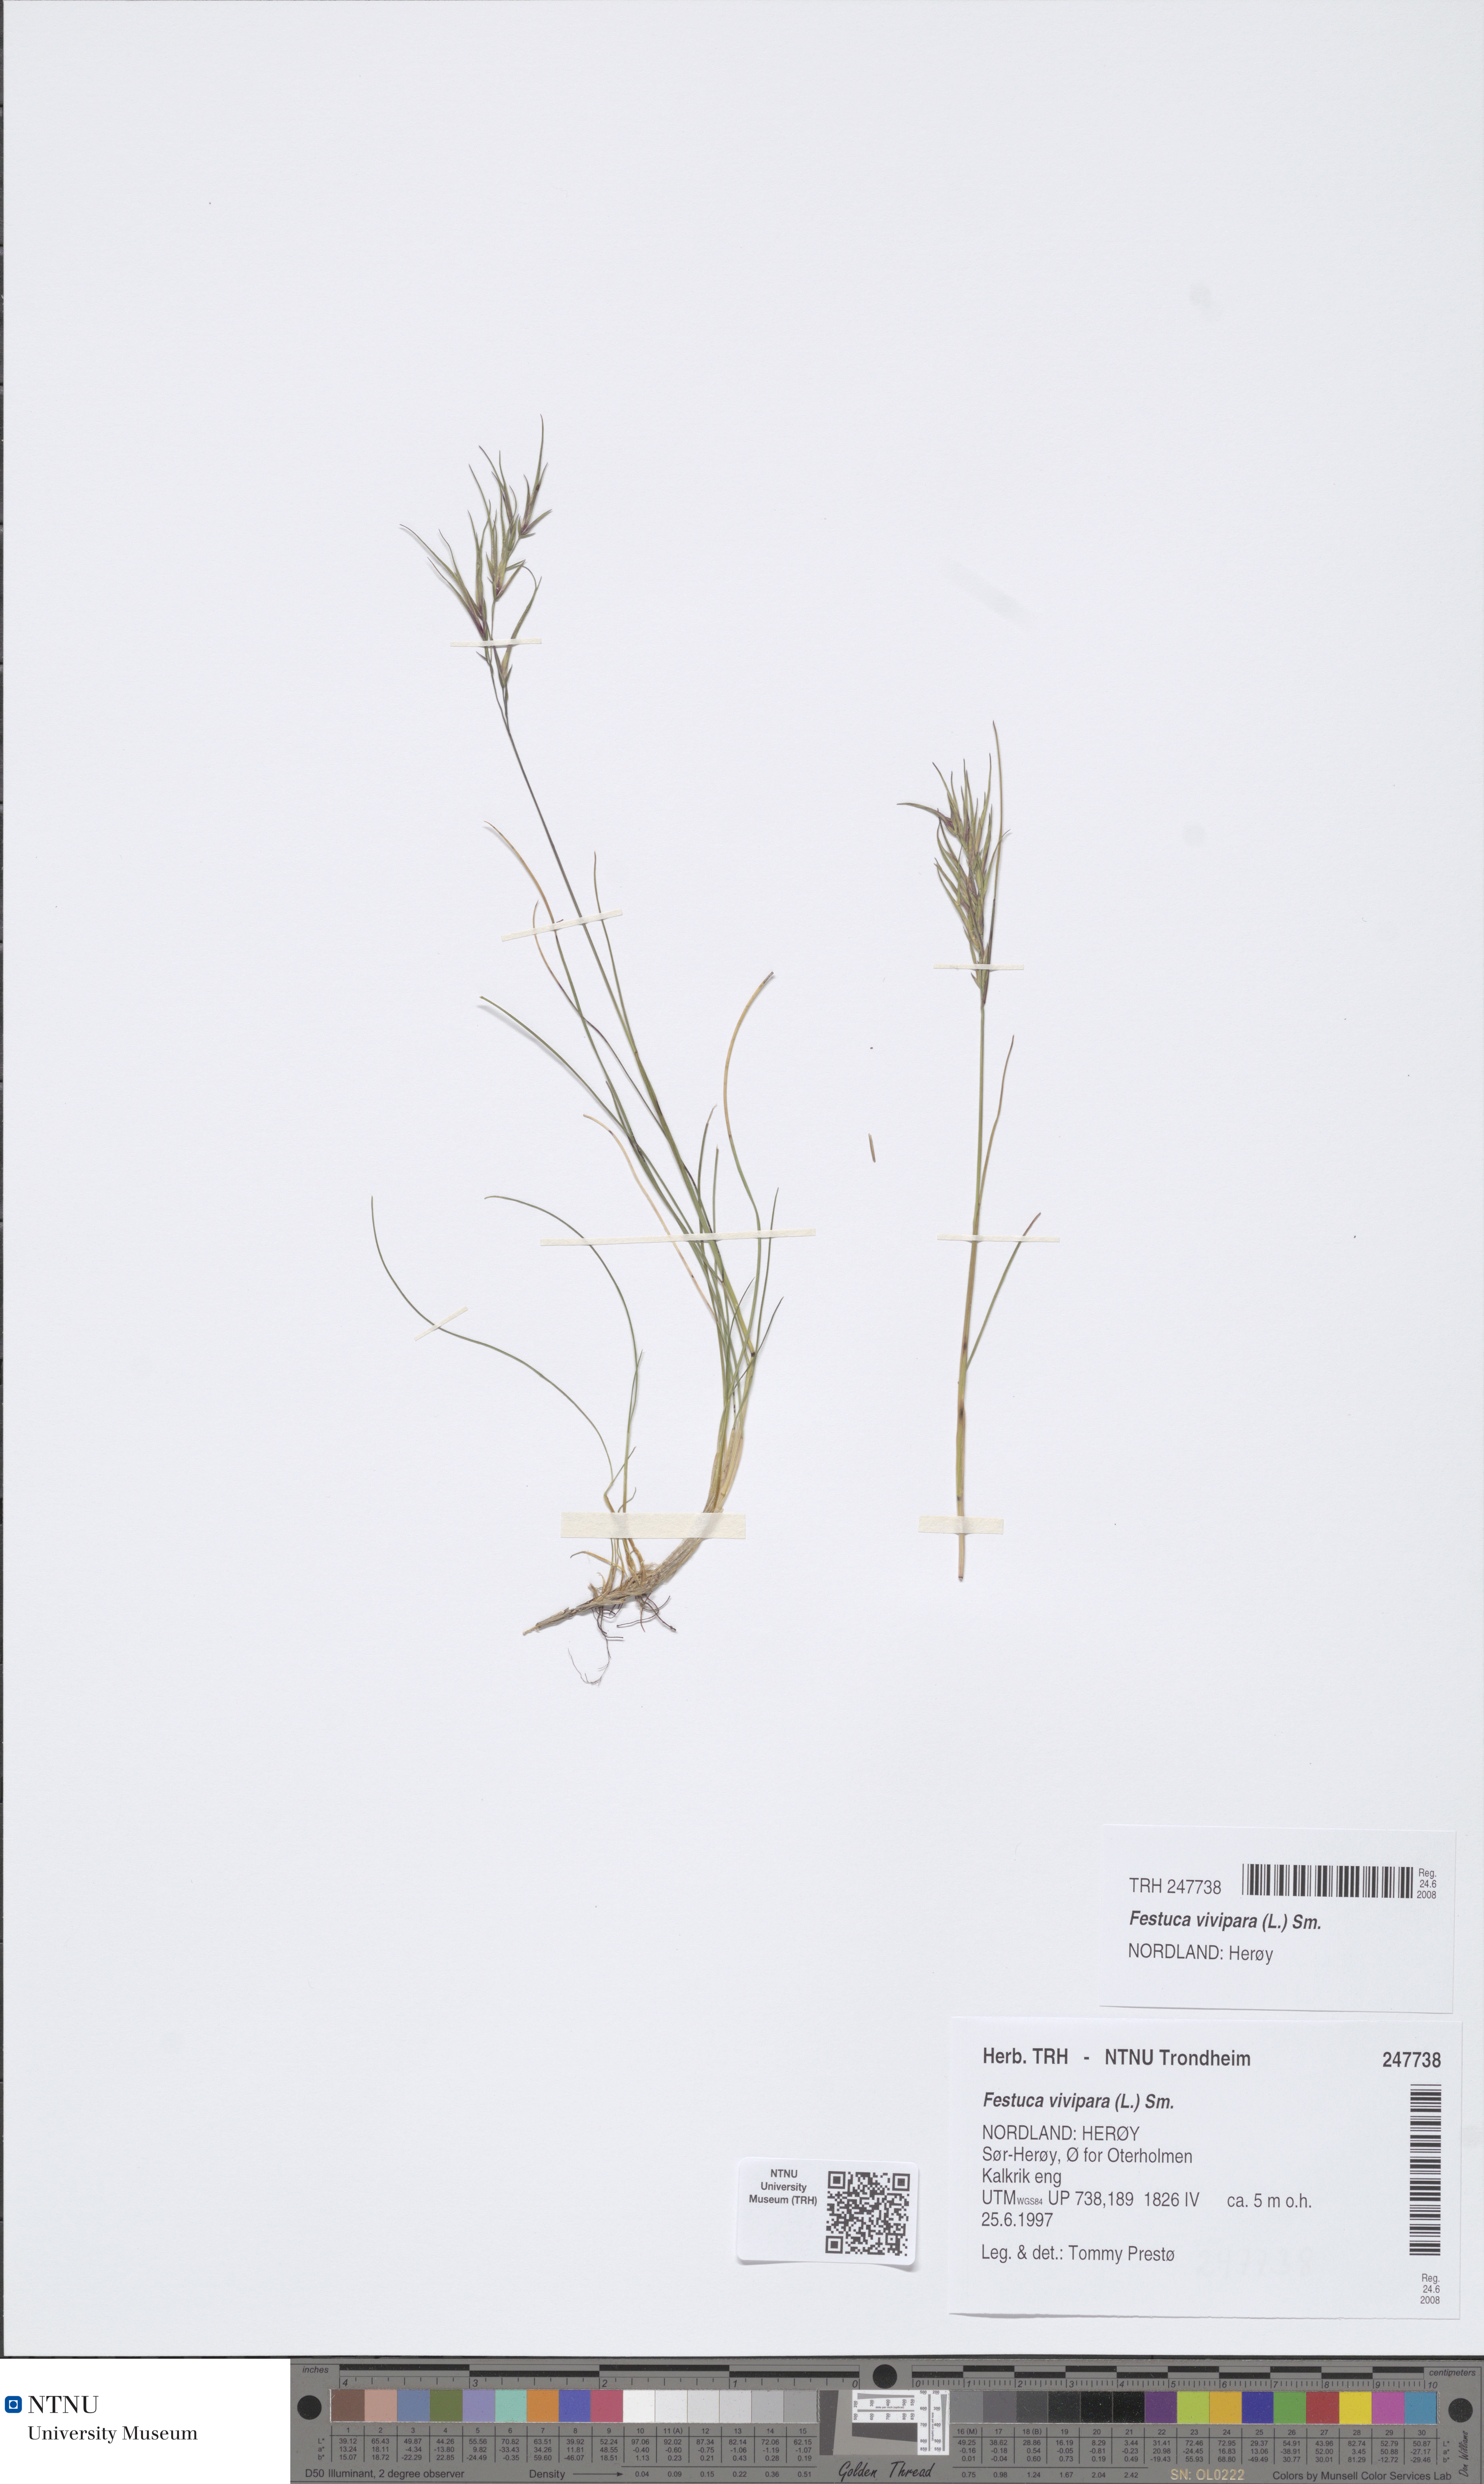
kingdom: Plantae
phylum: Tracheophyta
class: Liliopsida
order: Poales
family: Poaceae
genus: Festuca
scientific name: Festuca vivipara
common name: Viviparous sheep's-fescue
